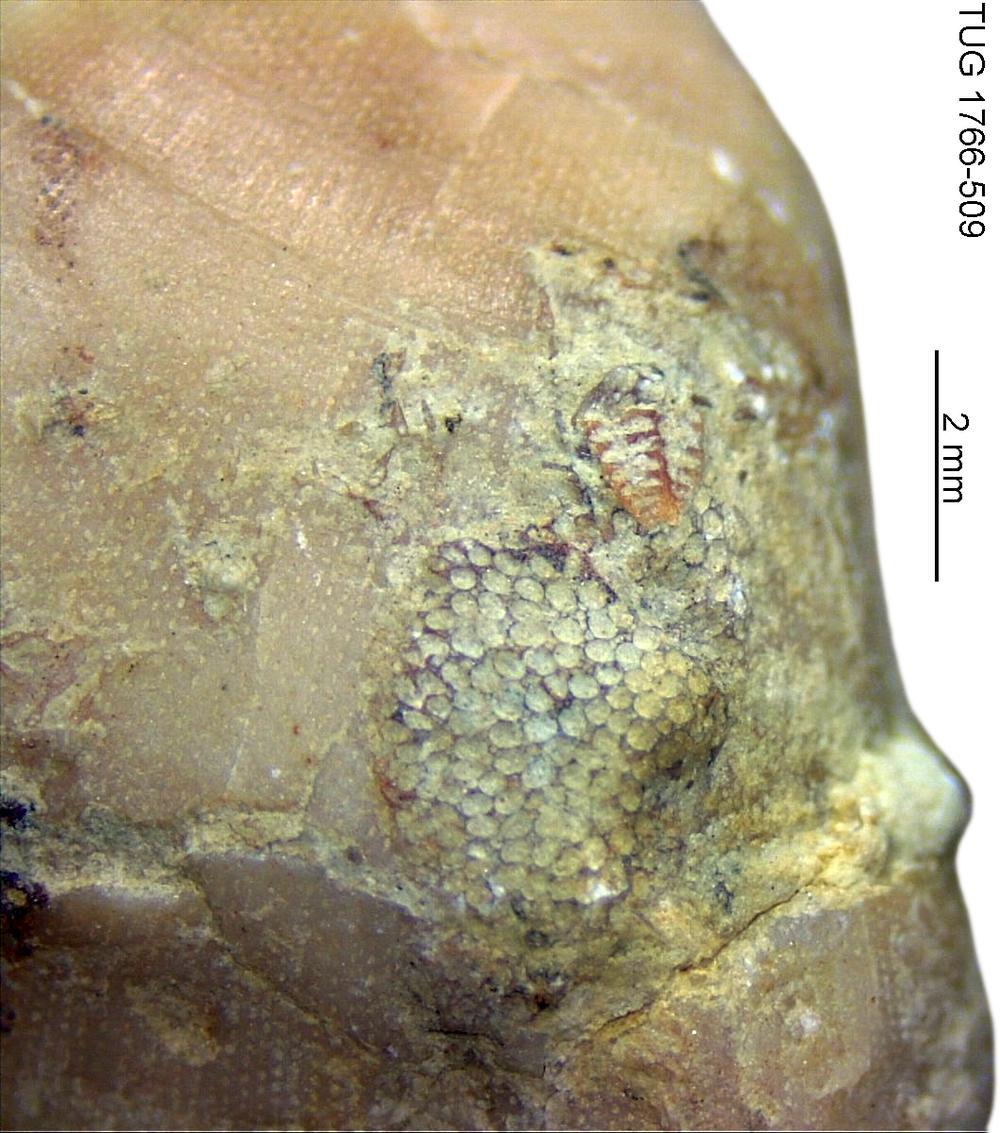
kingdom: Animalia
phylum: Bryozoa
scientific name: Bryozoa
